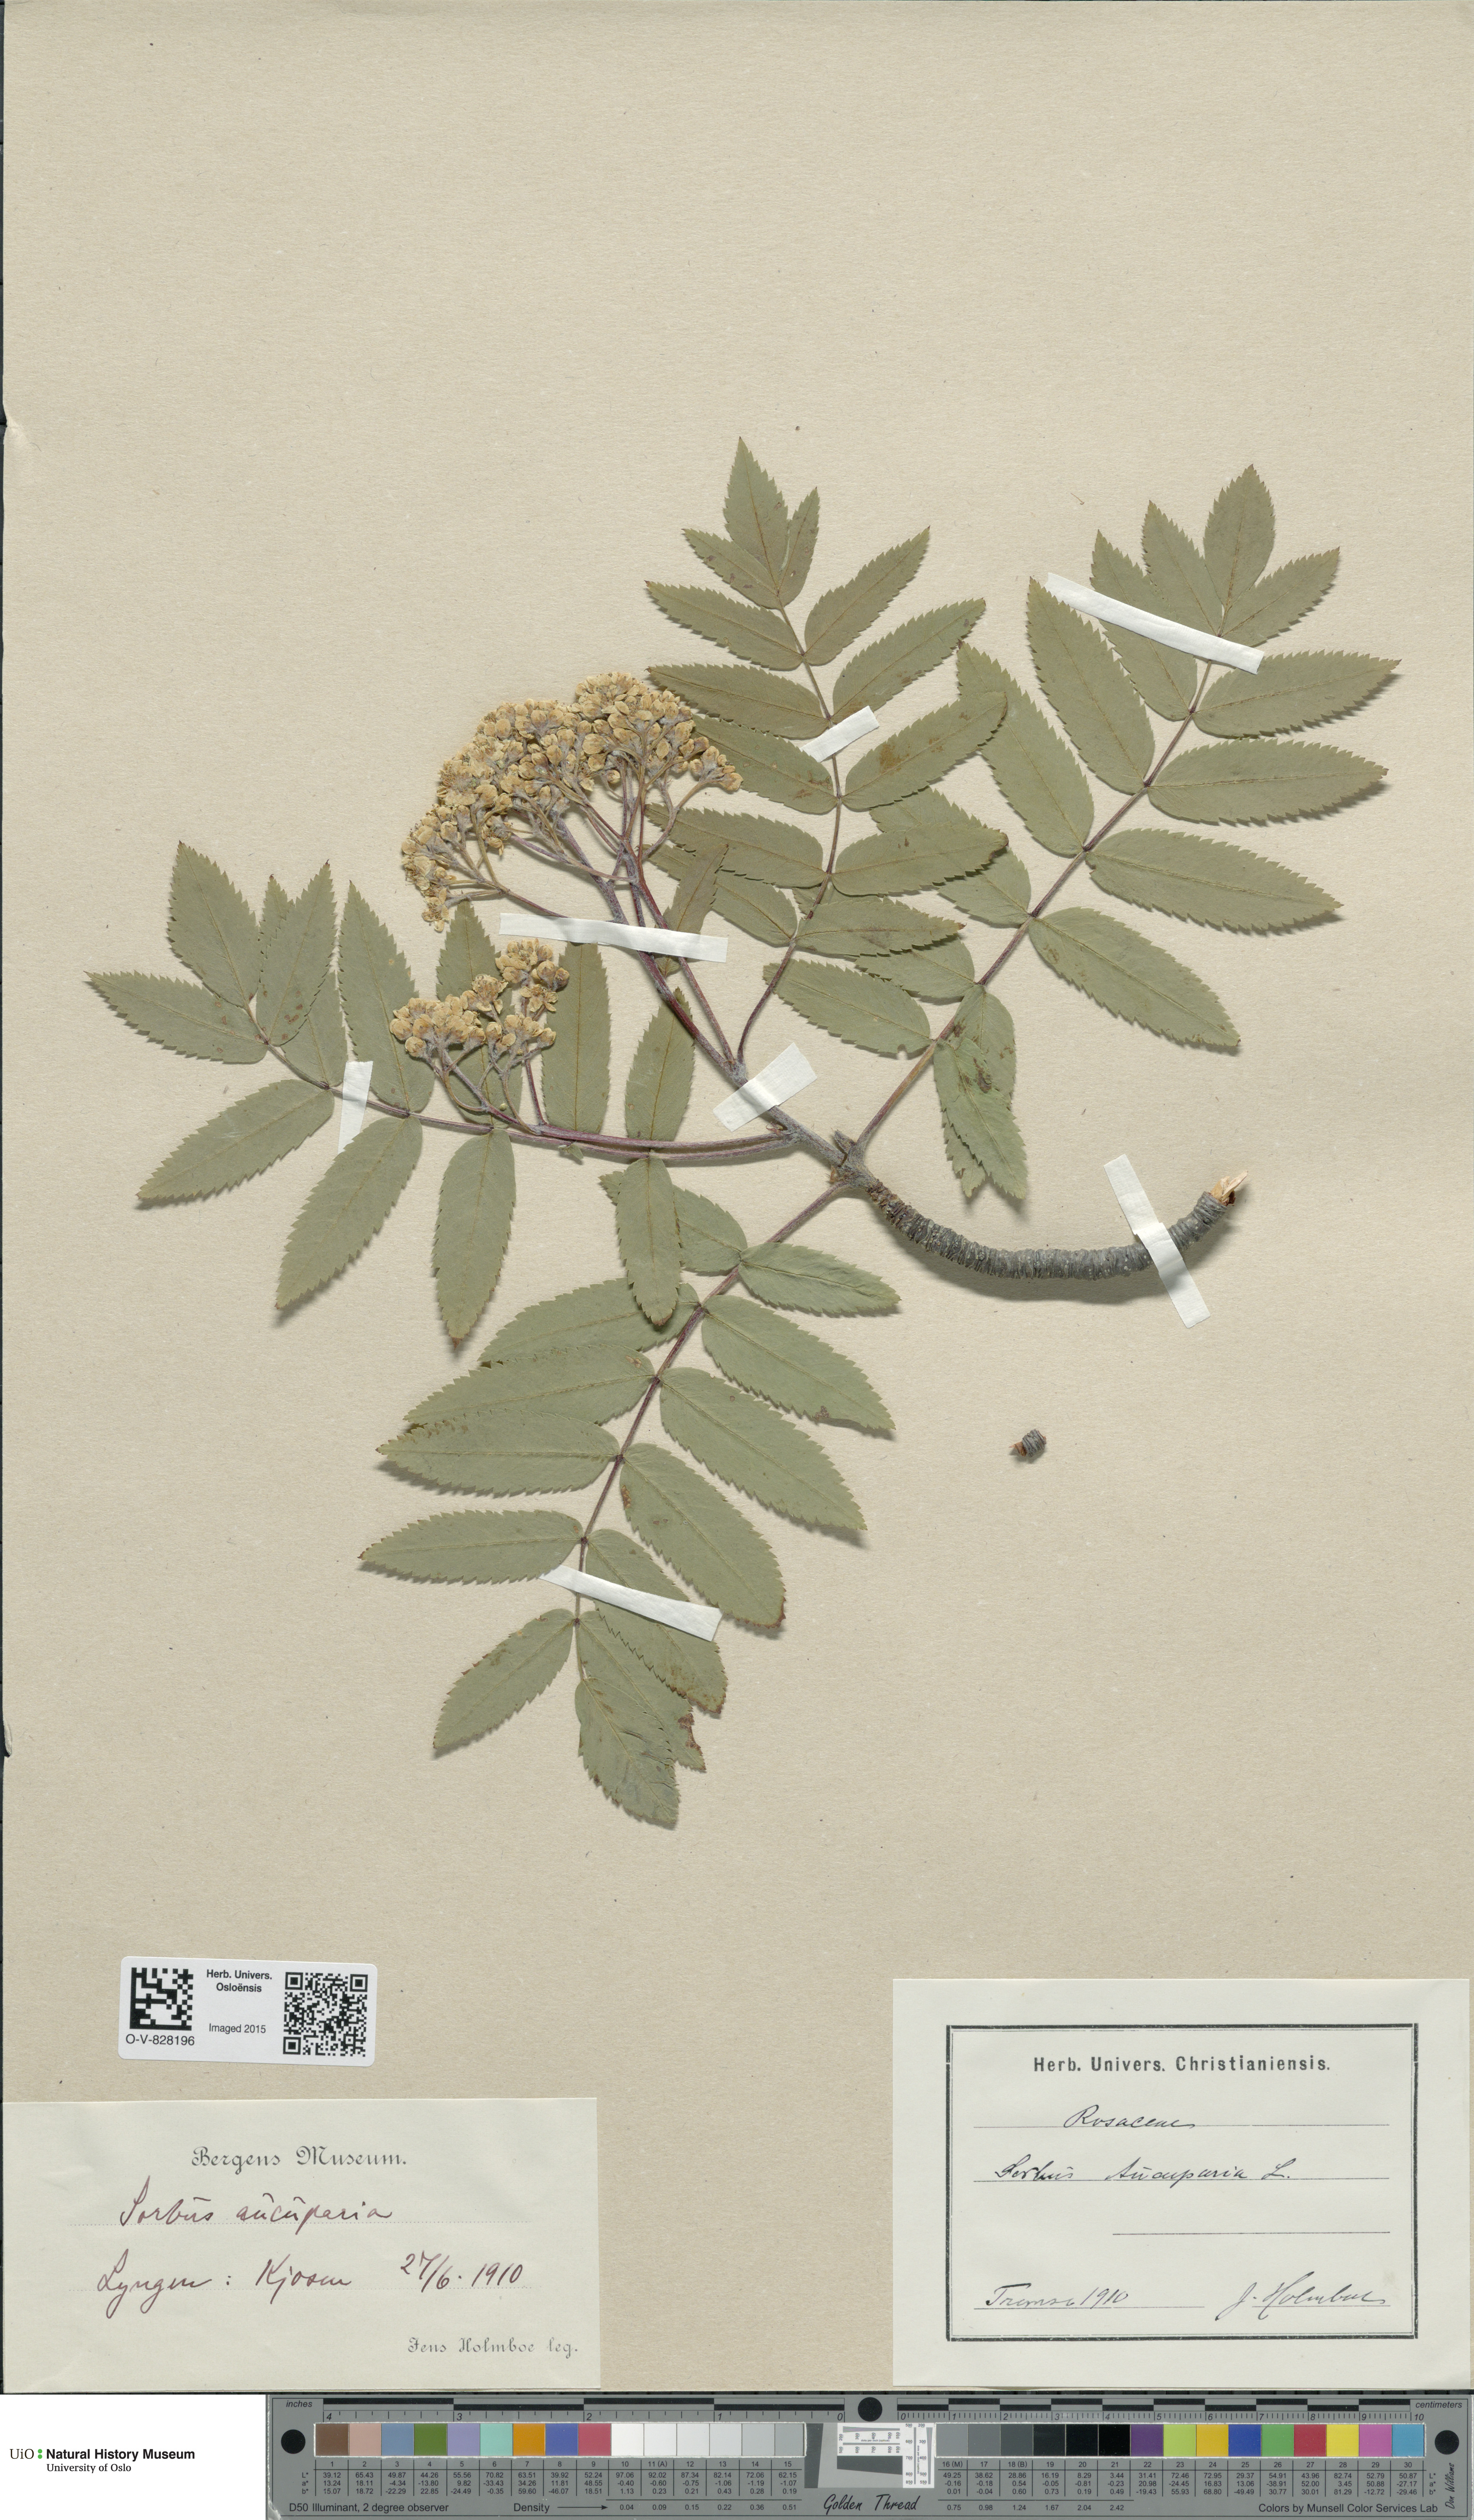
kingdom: Plantae
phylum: Tracheophyta
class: Magnoliopsida
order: Rosales
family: Rosaceae
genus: Sorbus
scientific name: Sorbus aucuparia
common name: Rowan
